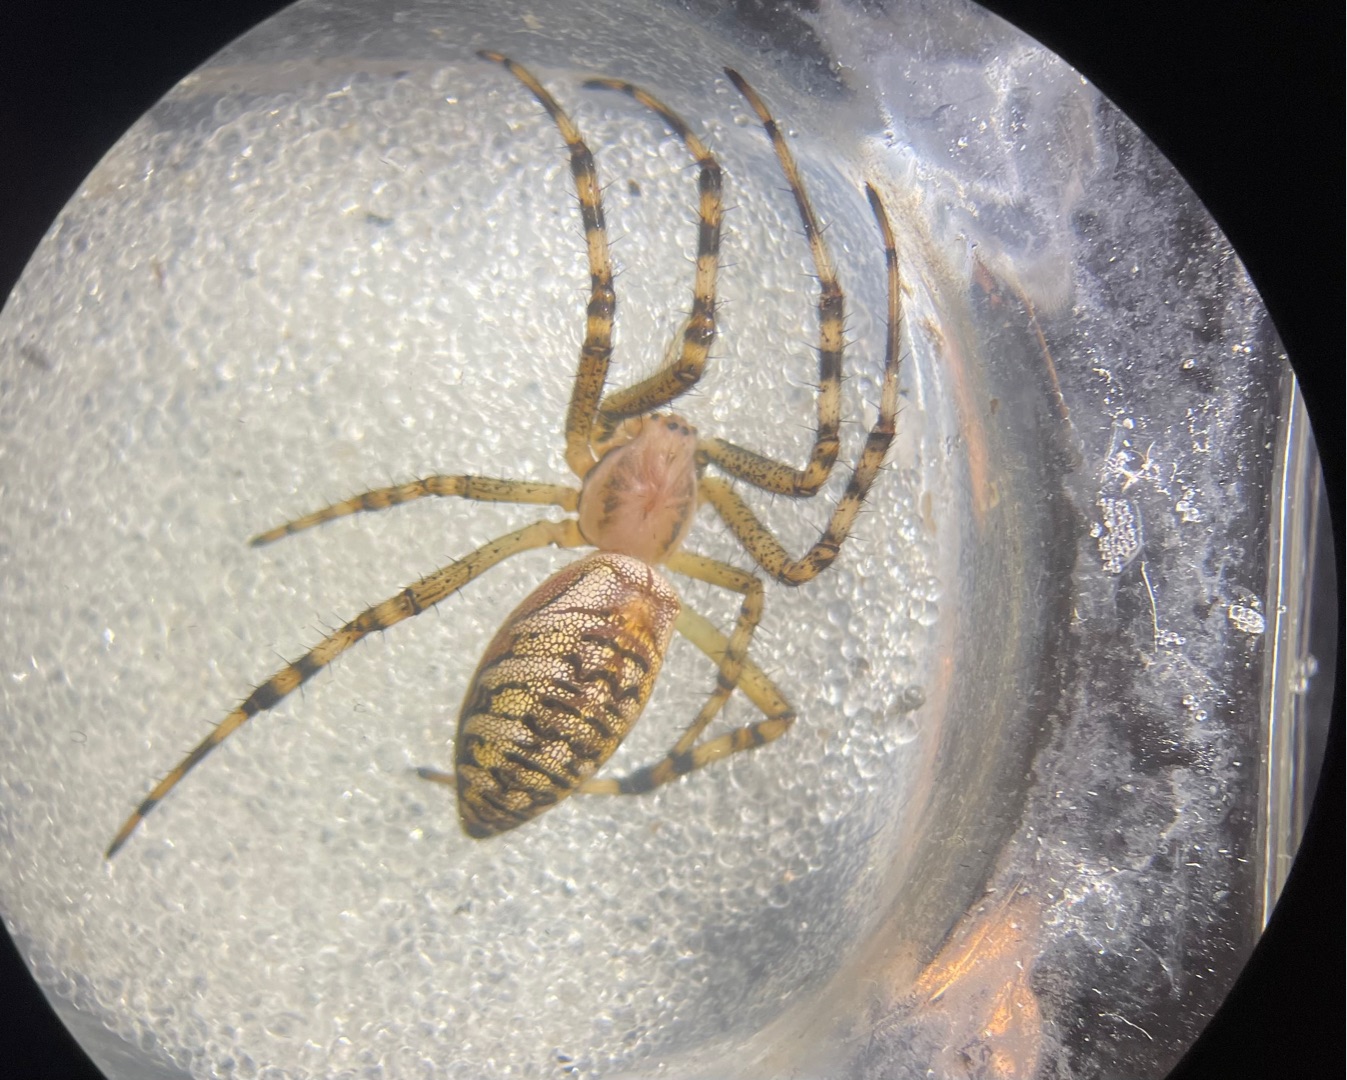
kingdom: Animalia
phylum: Arthropoda
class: Arachnida
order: Araneae
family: Araneidae
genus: Argiope
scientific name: Argiope bruennichi
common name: Hvepseedderkop
